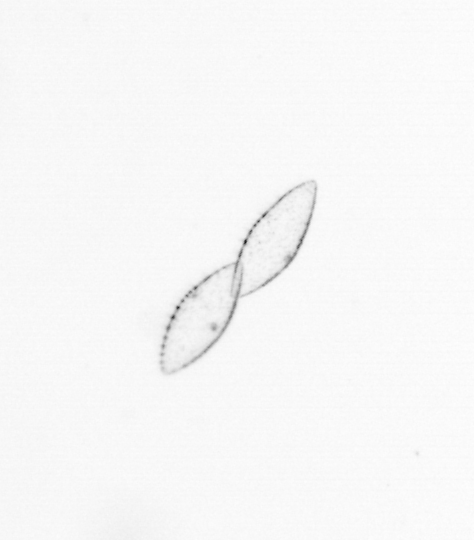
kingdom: Chromista
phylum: Myzozoa
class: Dinophyceae
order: Noctilucales
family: Noctilucaceae
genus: Noctiluca
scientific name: Noctiluca scintillans
